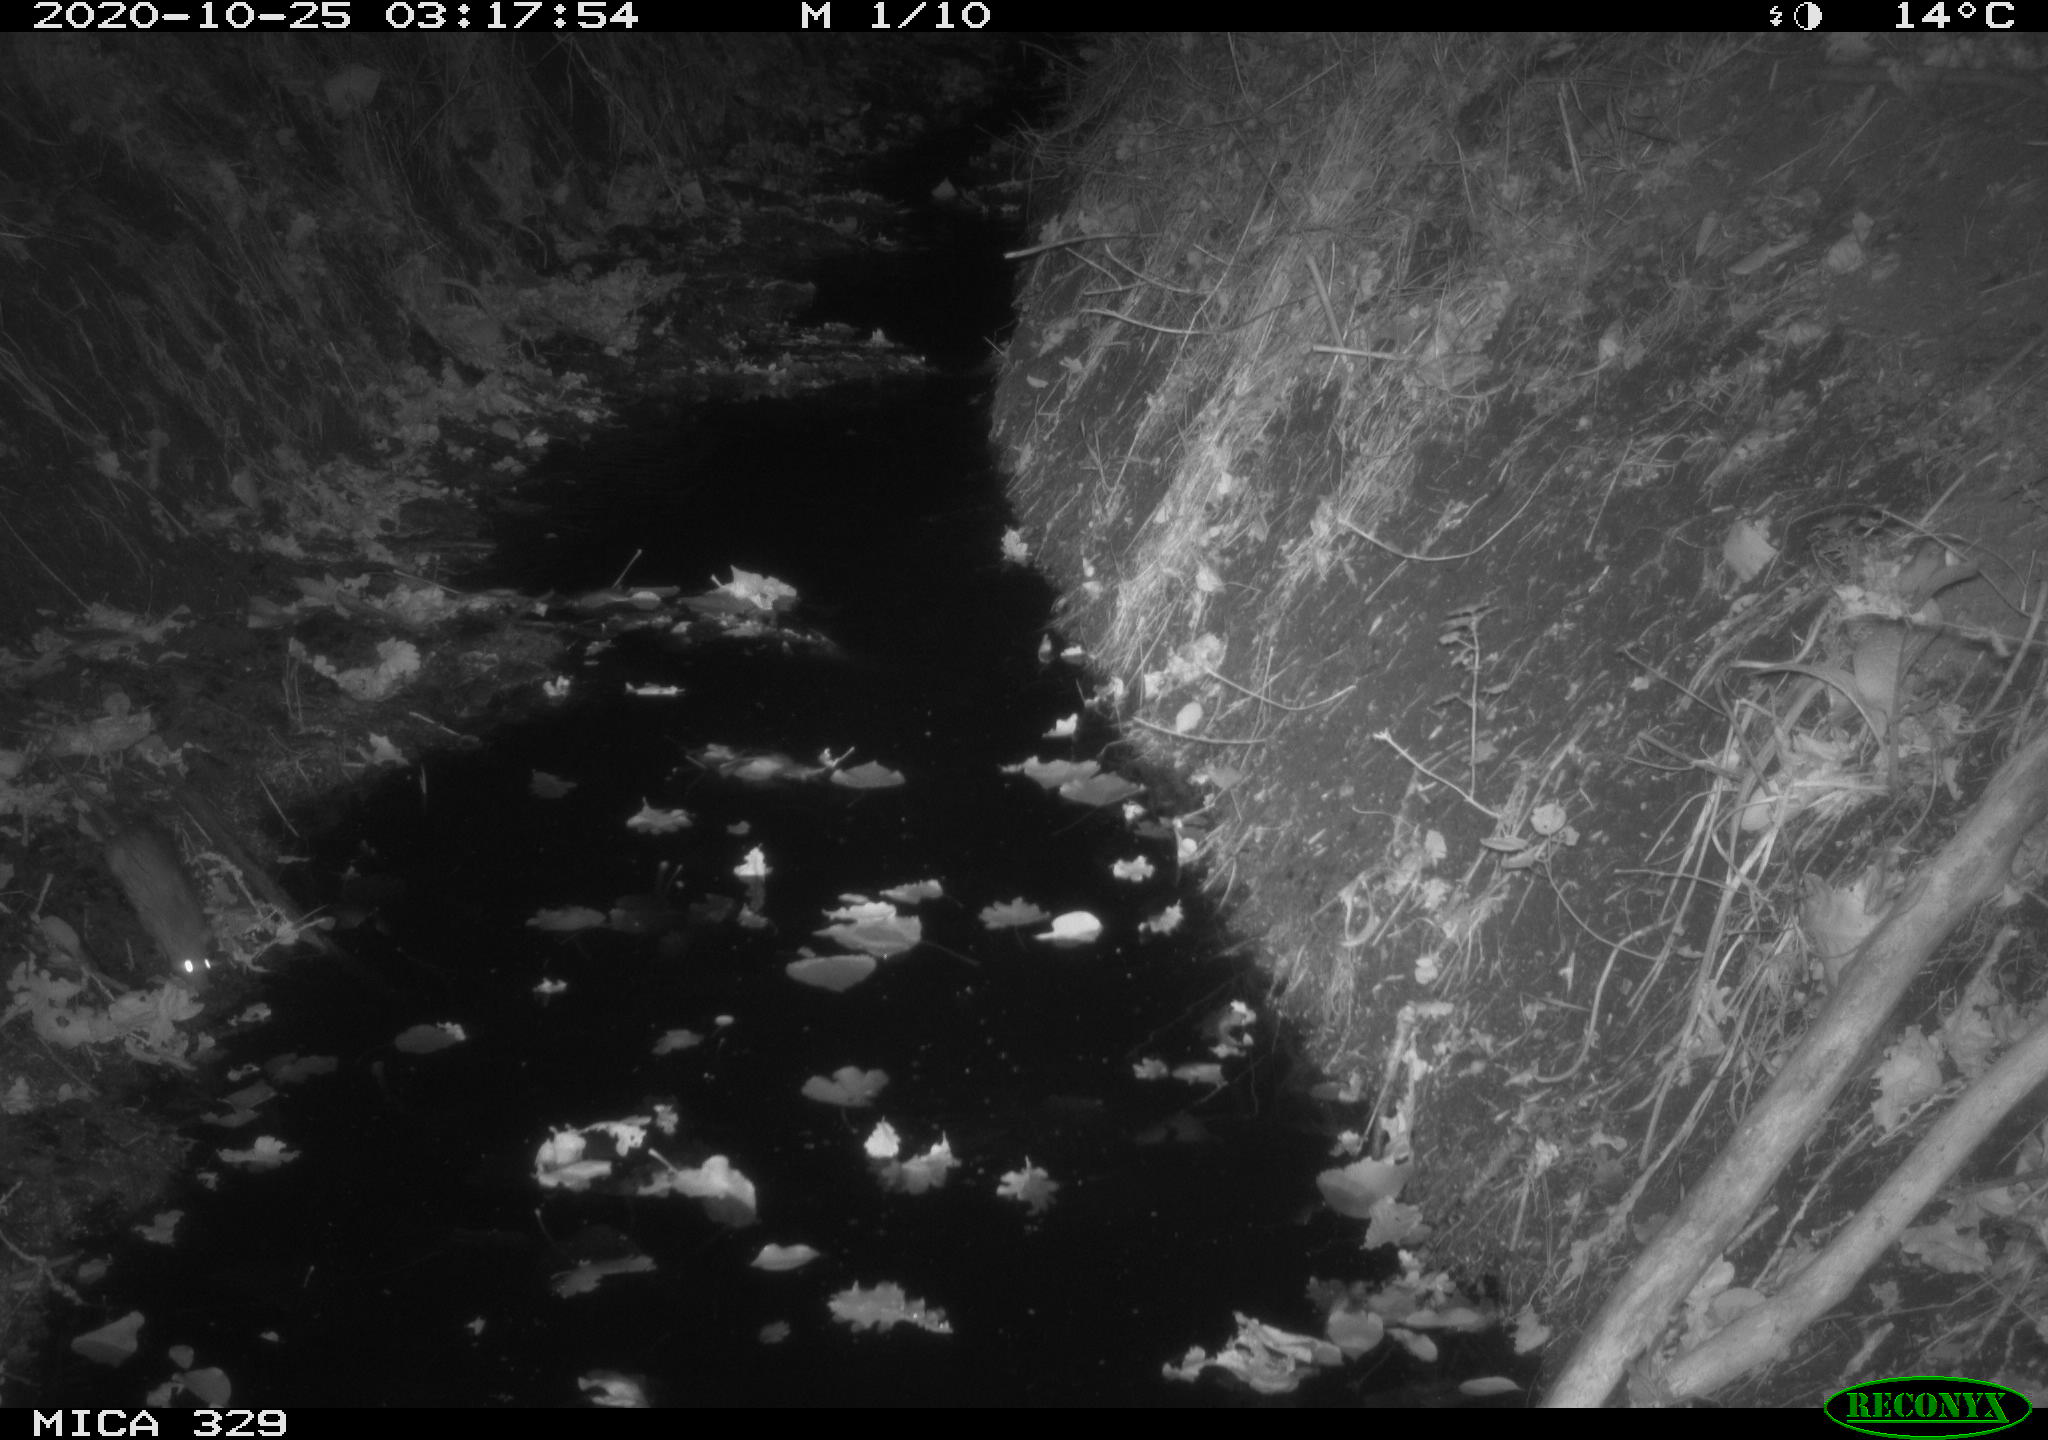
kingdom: Animalia
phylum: Chordata
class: Mammalia
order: Rodentia
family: Muridae
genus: Rattus
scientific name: Rattus norvegicus
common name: Brown rat
